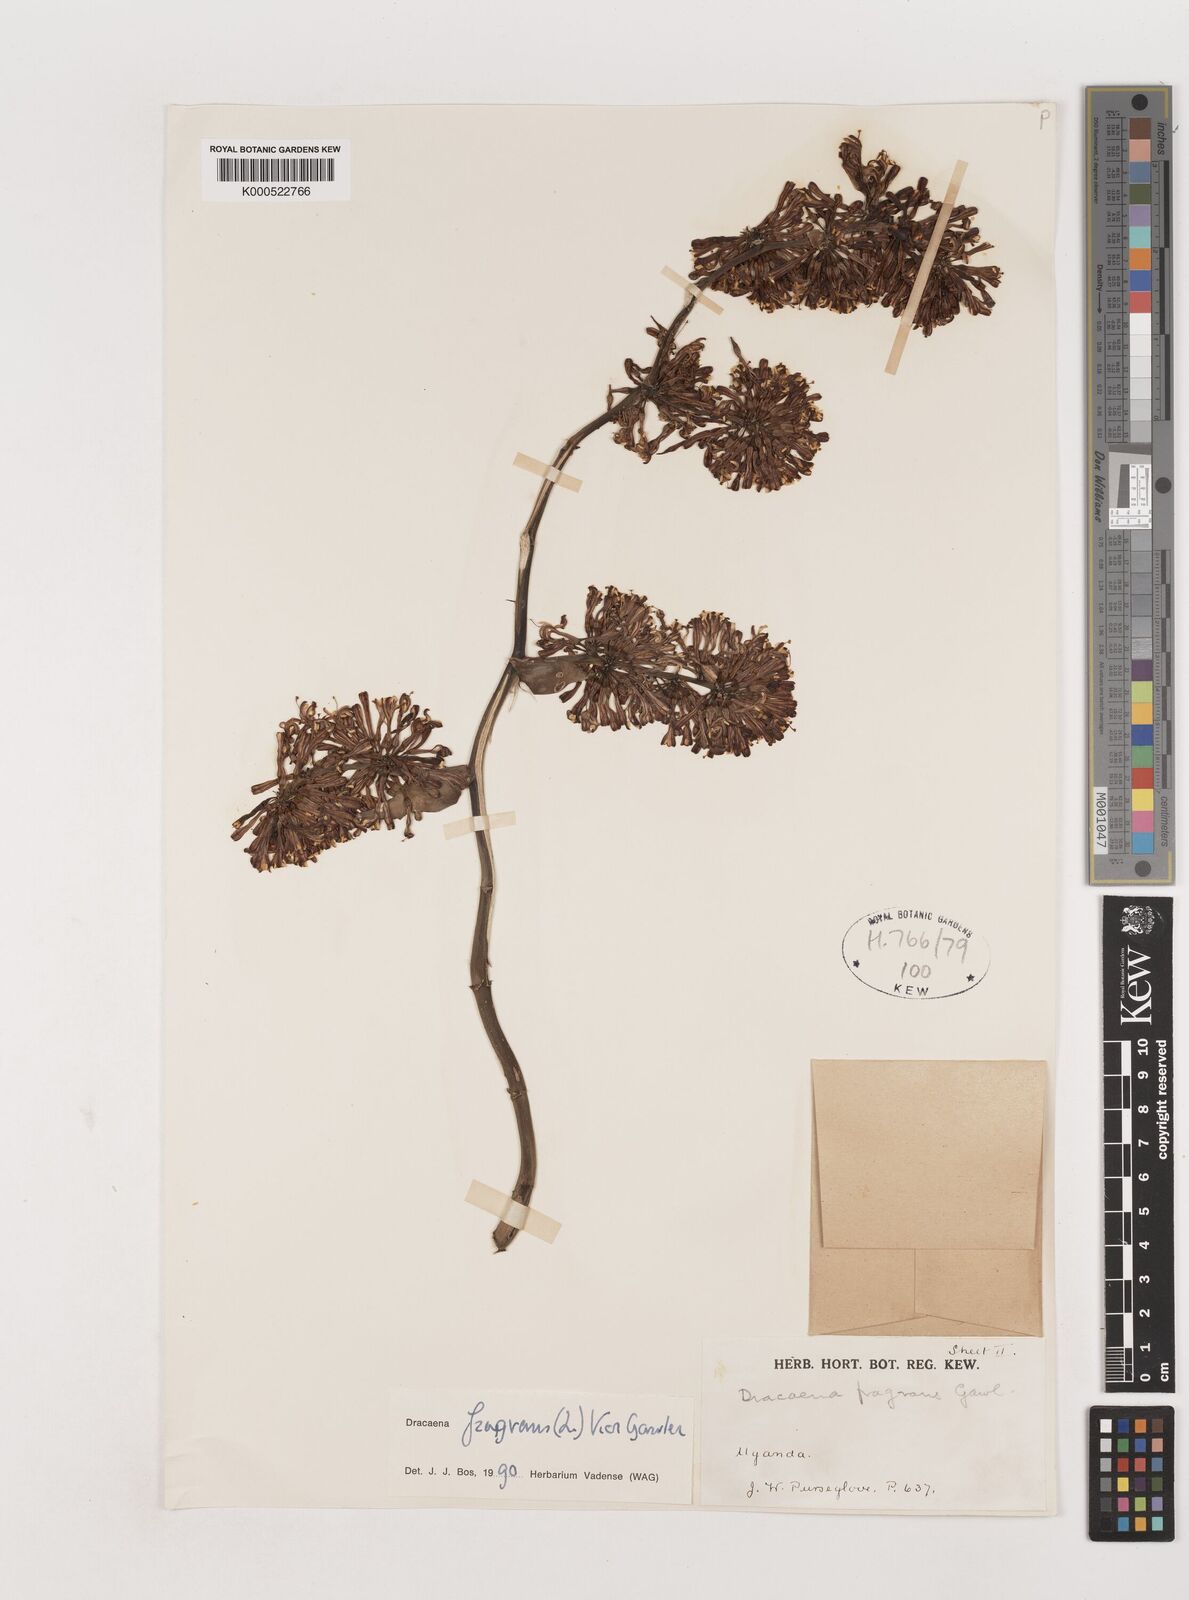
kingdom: Plantae
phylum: Tracheophyta
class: Liliopsida
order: Asparagales
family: Asparagaceae
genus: Dracaena
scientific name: Dracaena fragrans
